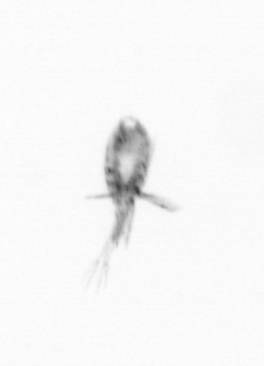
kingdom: Animalia
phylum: Arthropoda
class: Copepoda
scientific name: Copepoda
